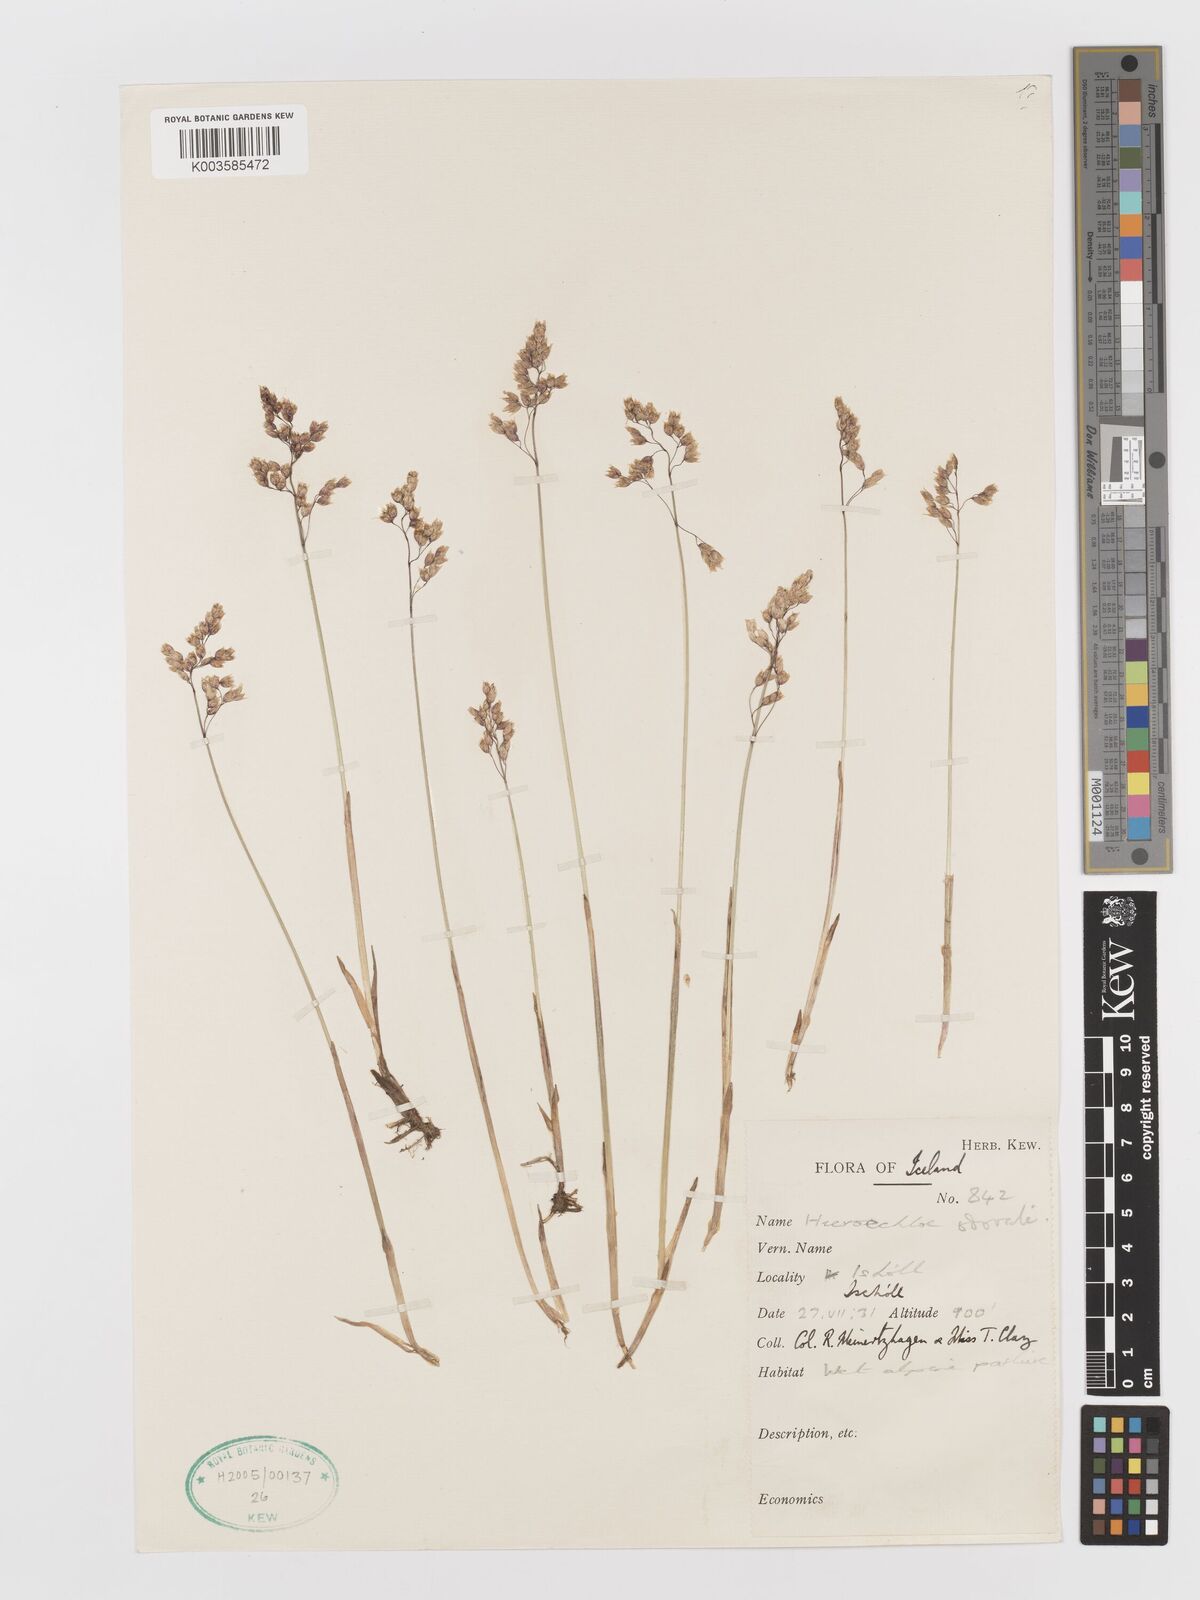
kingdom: Plantae
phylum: Tracheophyta
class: Liliopsida
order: Poales
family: Poaceae
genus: Anthoxanthum
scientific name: Anthoxanthum nitens
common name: Holy grass
